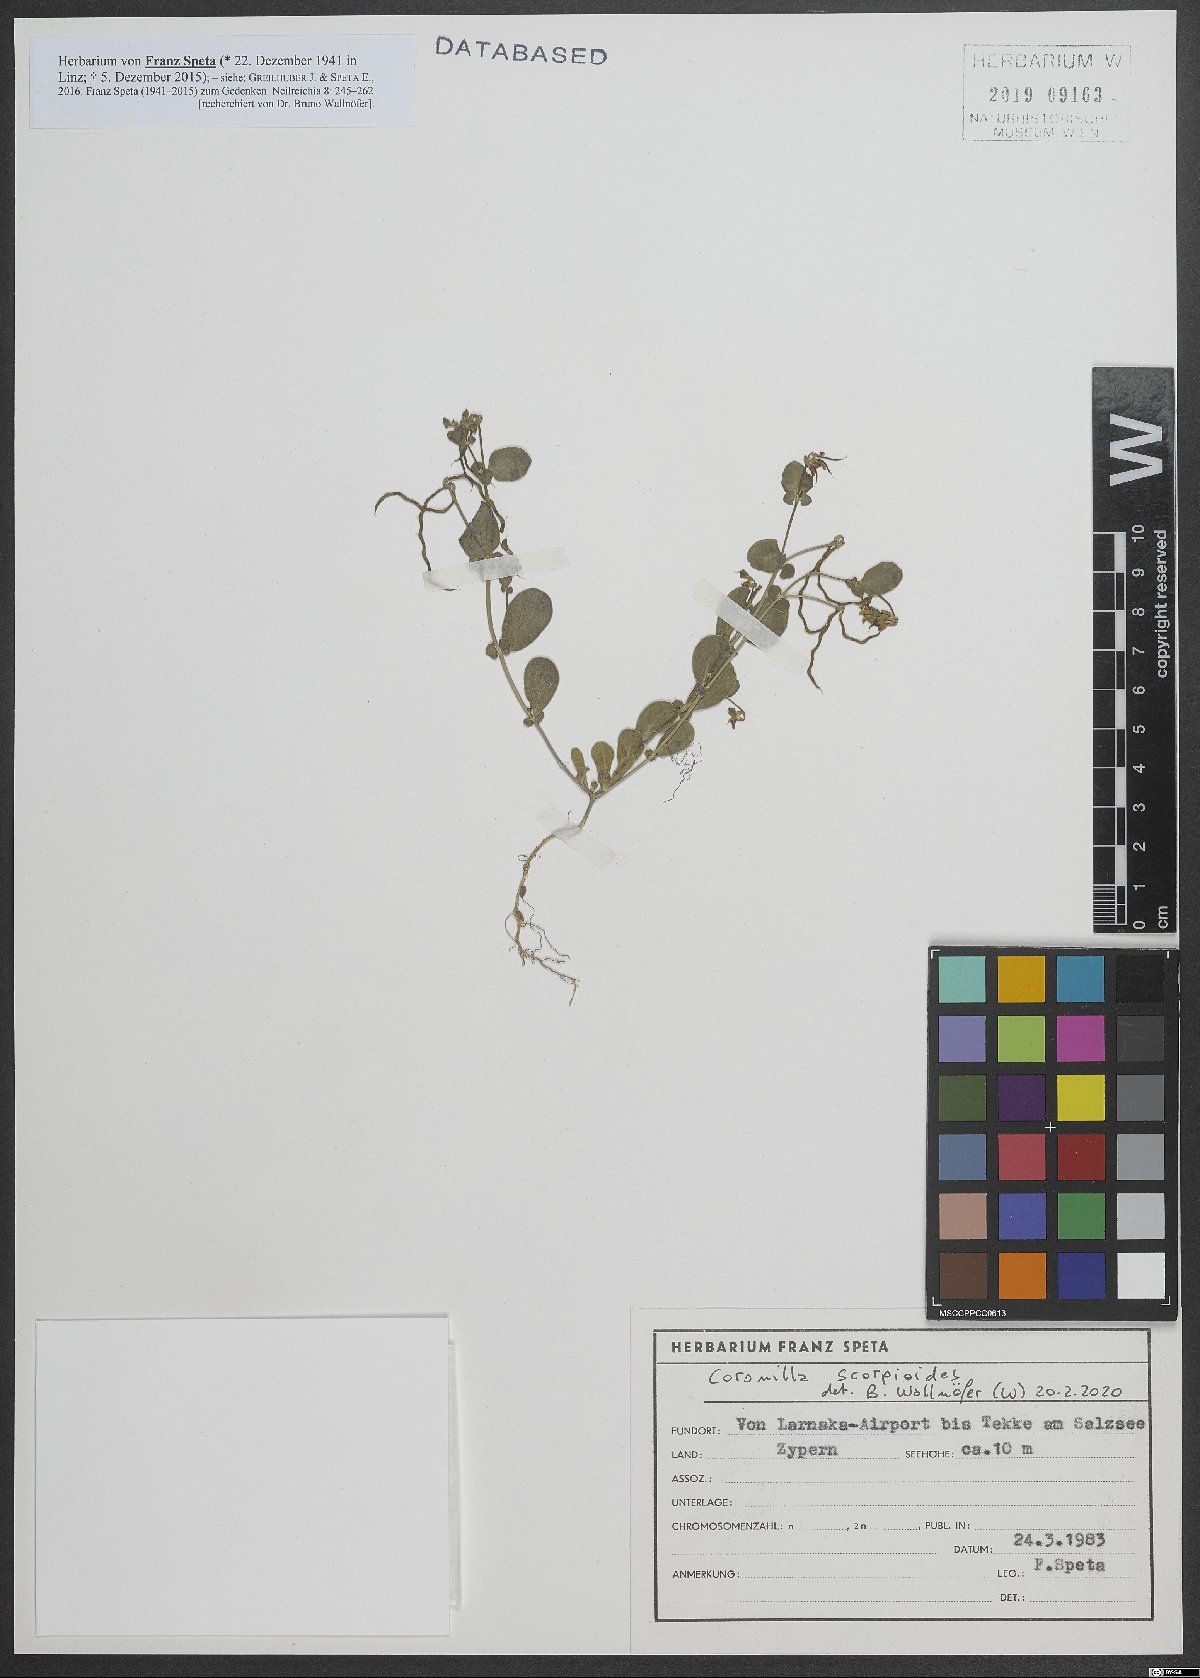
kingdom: Plantae
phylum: Tracheophyta
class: Magnoliopsida
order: Fabales
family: Fabaceae
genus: Coronilla
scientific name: Coronilla scorpioides
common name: Annual scorpion-vetch
